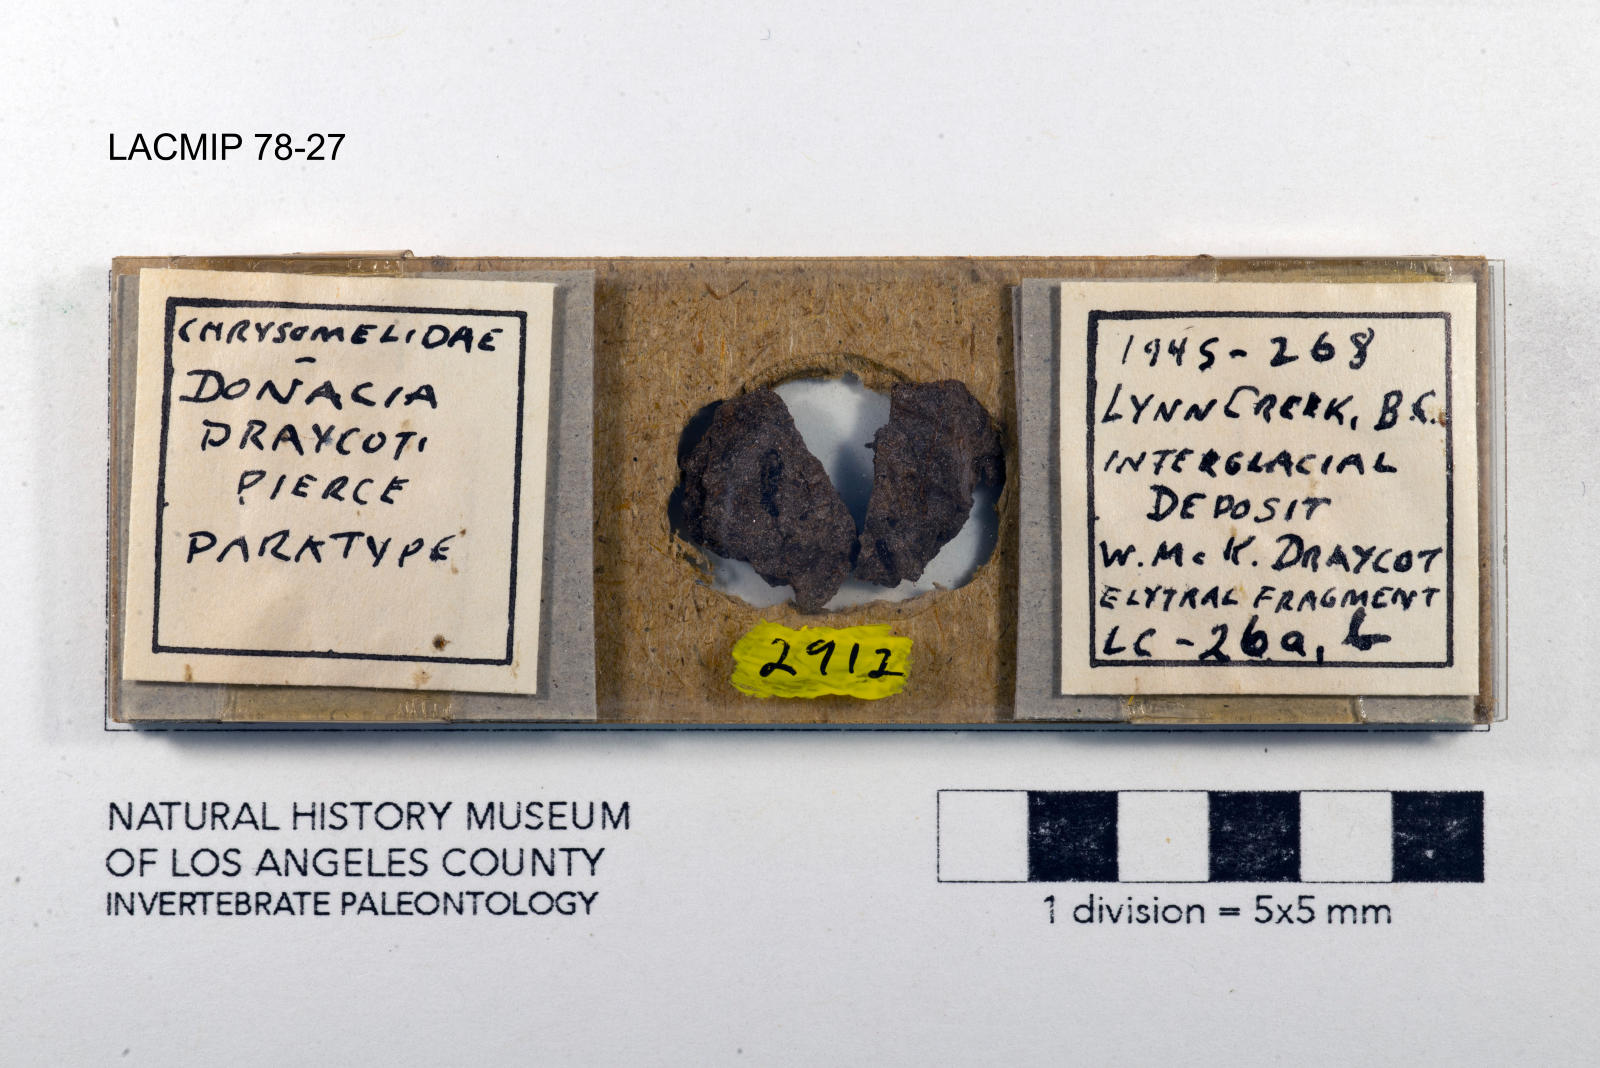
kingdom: Animalia
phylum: Arthropoda
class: Insecta
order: Coleoptera
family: Chrysomelidae
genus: Donacia
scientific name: Donacia draycoti
